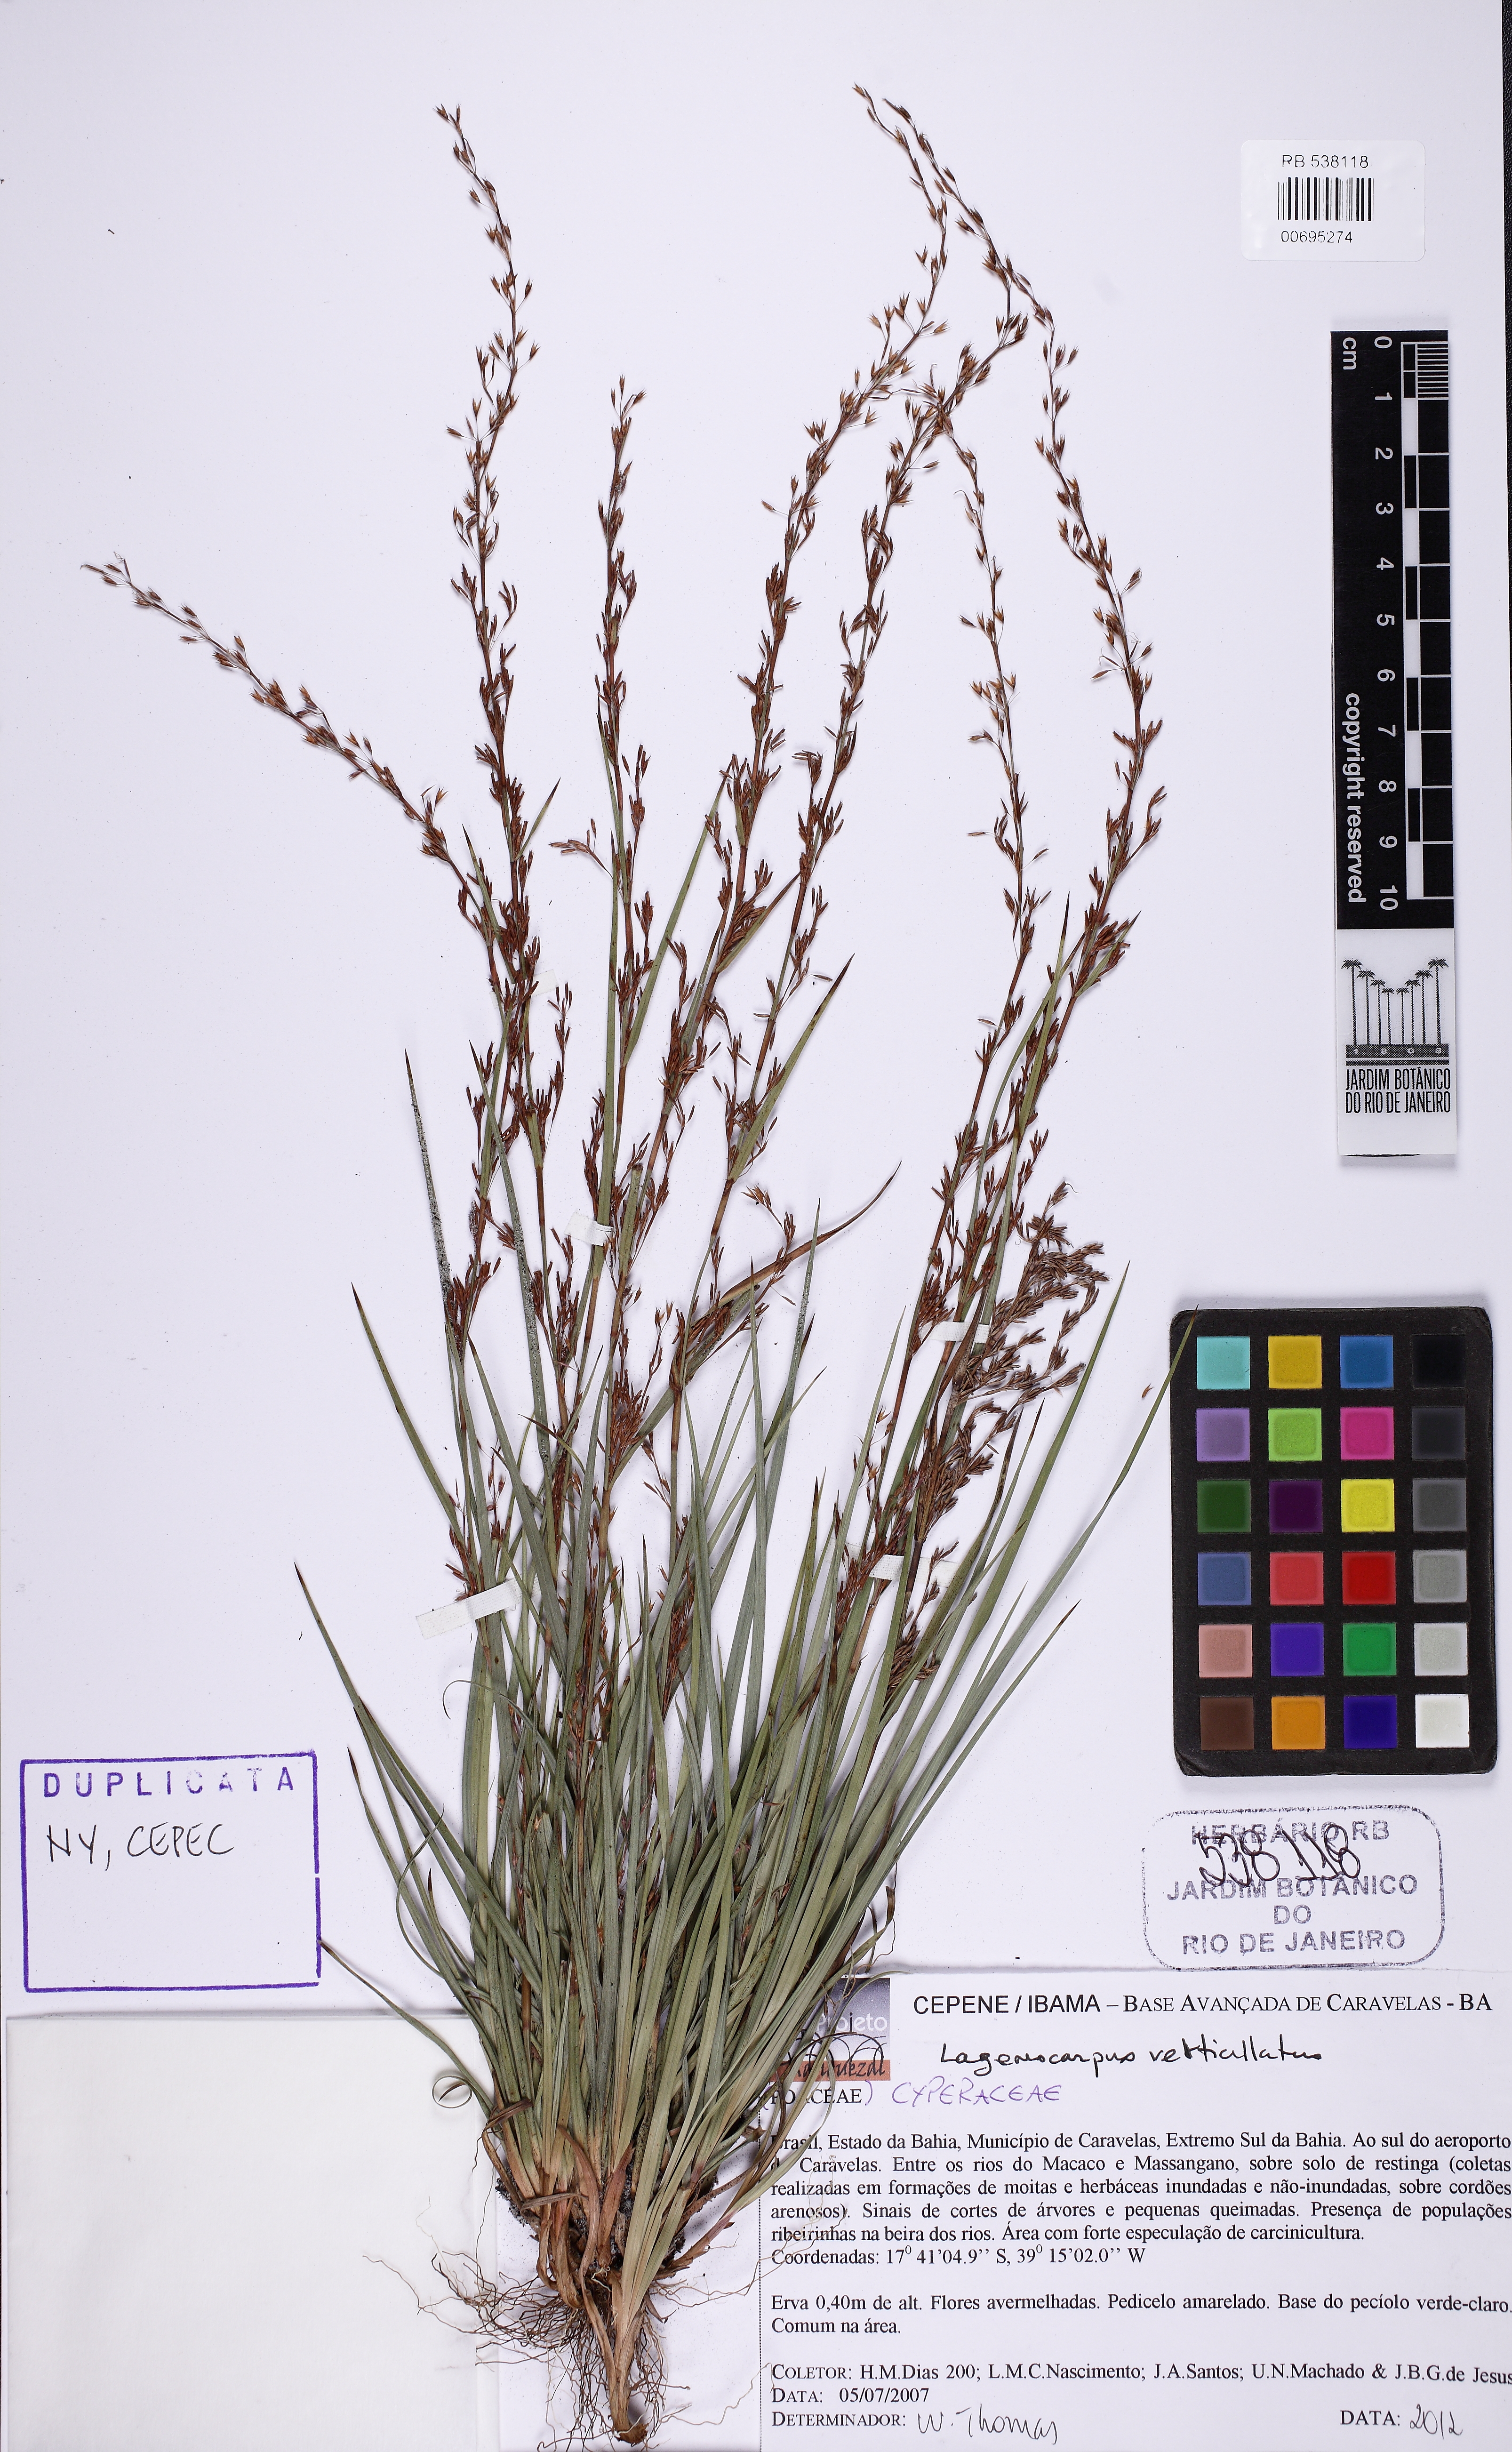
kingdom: Plantae
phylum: Tracheophyta
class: Liliopsida
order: Poales
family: Cyperaceae
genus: Cryptangium
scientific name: Cryptangium verticillatum
